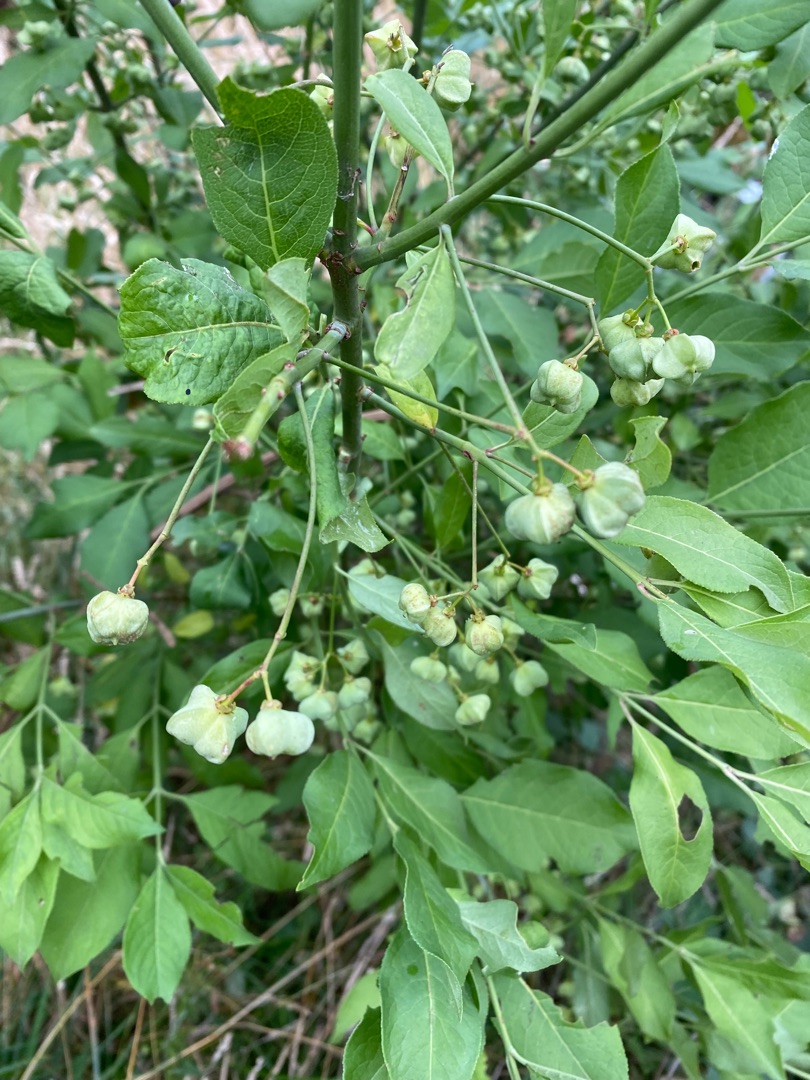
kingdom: Plantae
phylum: Tracheophyta
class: Magnoliopsida
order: Celastrales
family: Celastraceae
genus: Euonymus
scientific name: Euonymus europaeus
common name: Benved
